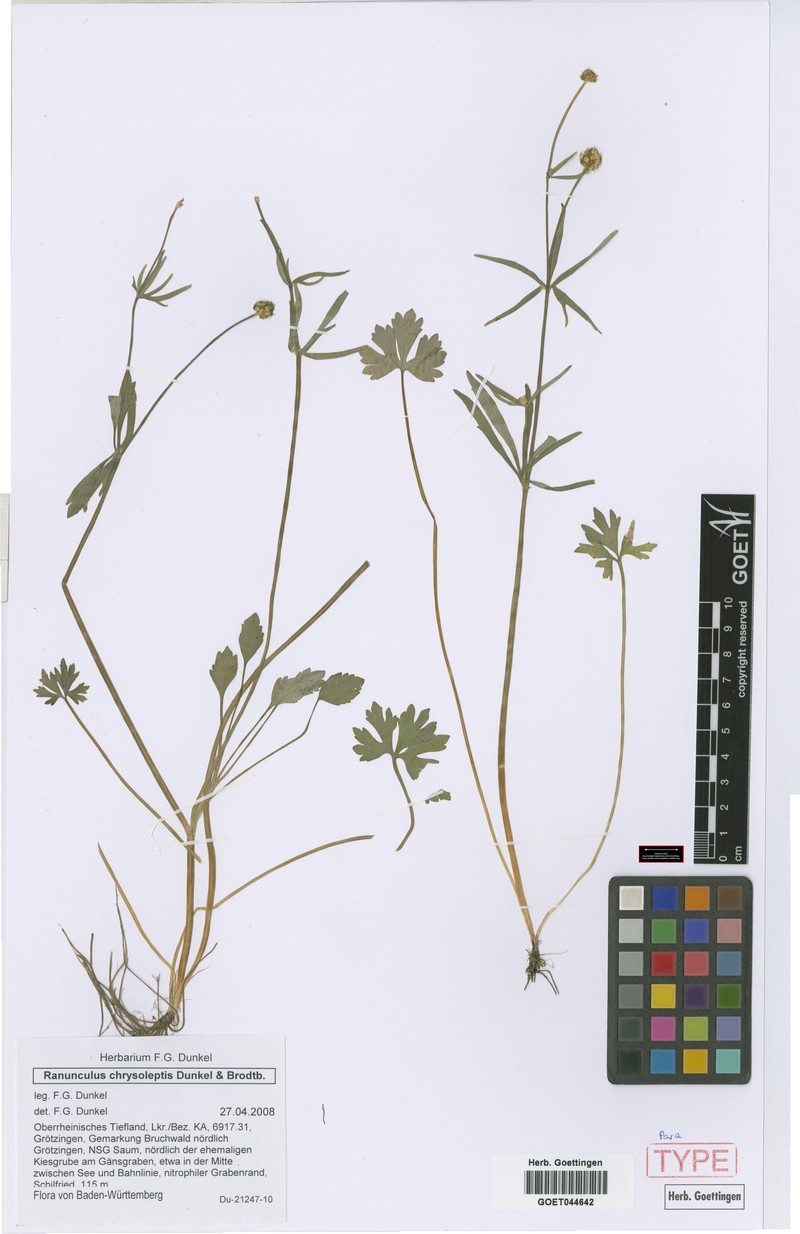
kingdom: Plantae
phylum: Tracheophyta
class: Magnoliopsida
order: Ranunculales
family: Ranunculaceae
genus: Ranunculus
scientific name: Ranunculus chrysoleptos
